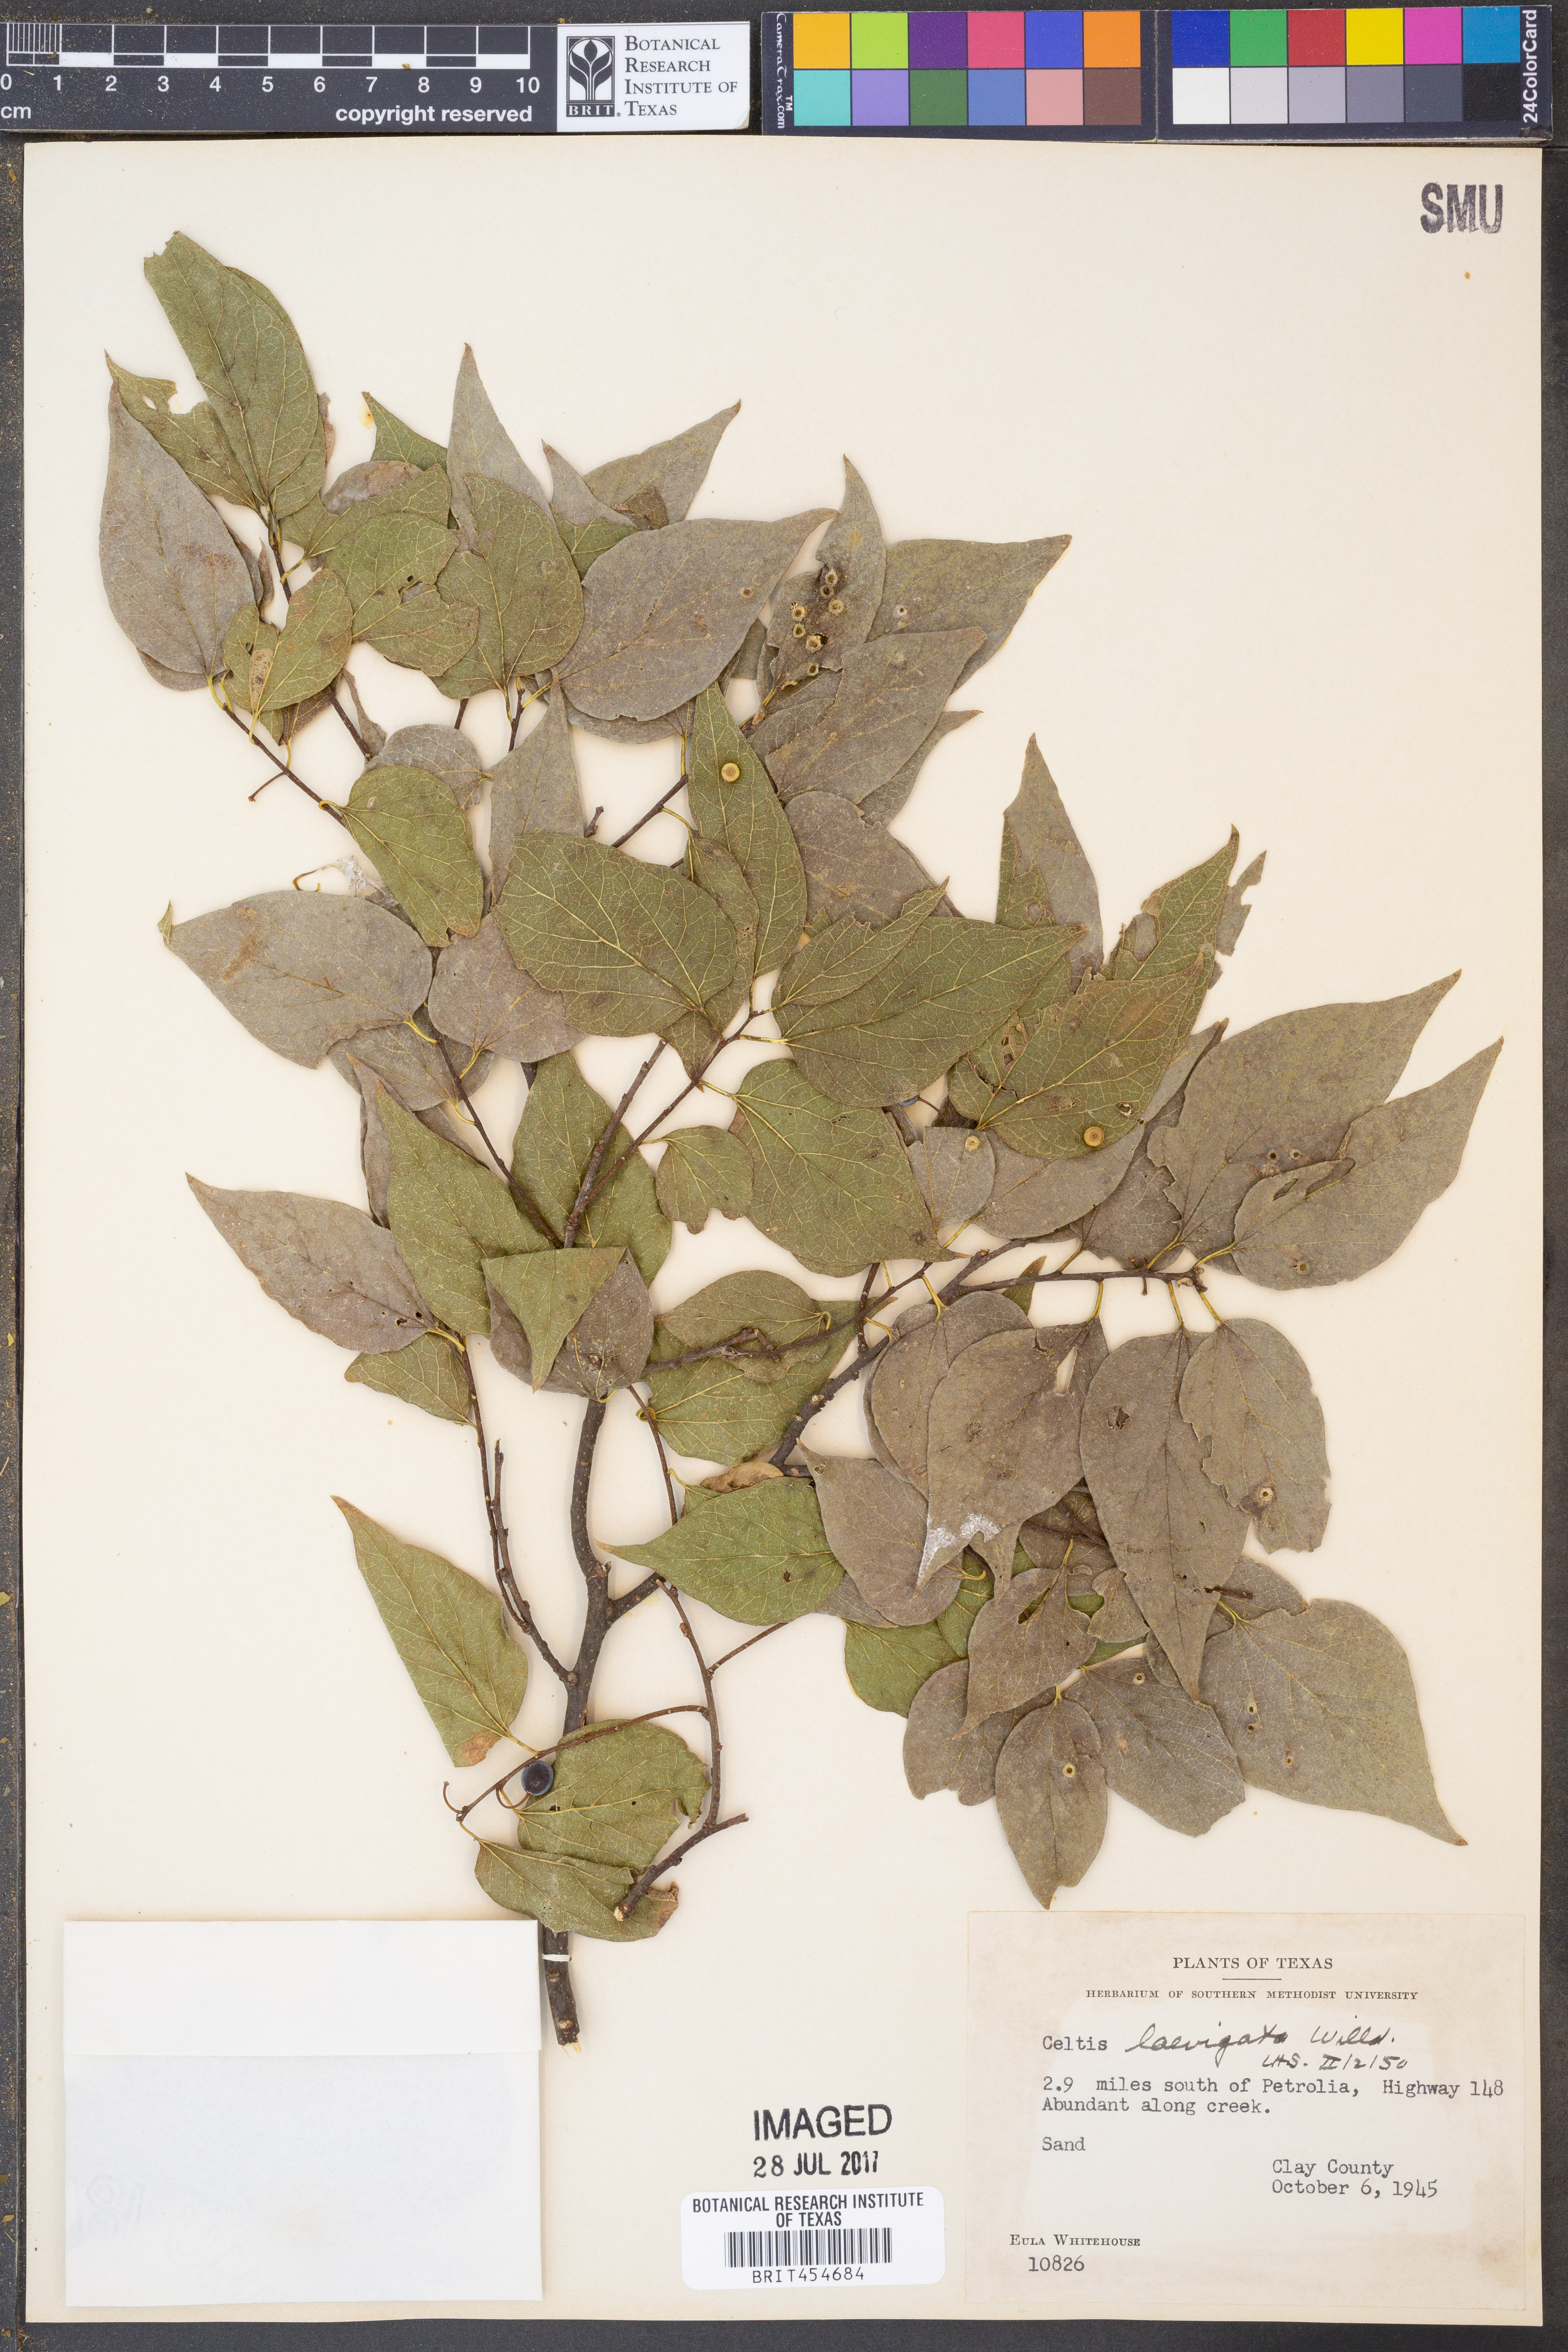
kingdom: Plantae
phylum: Tracheophyta
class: Magnoliopsida
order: Rosales
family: Cannabaceae
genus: Celtis
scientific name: Celtis laevigata
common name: Sugarberry
